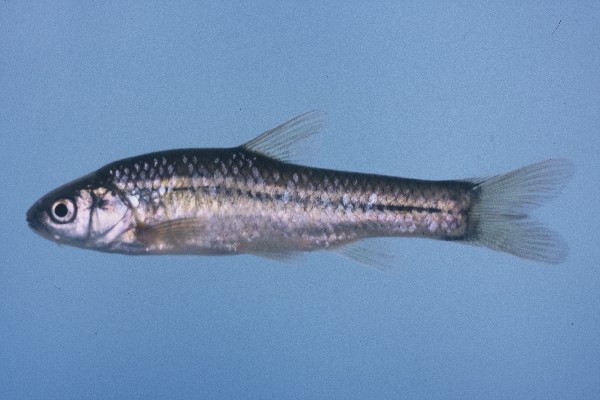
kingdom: Animalia
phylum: Chordata
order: Cypriniformes
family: Cyprinidae
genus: Enteromius
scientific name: Enteromius anoplus
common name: Chubbyhead barb
